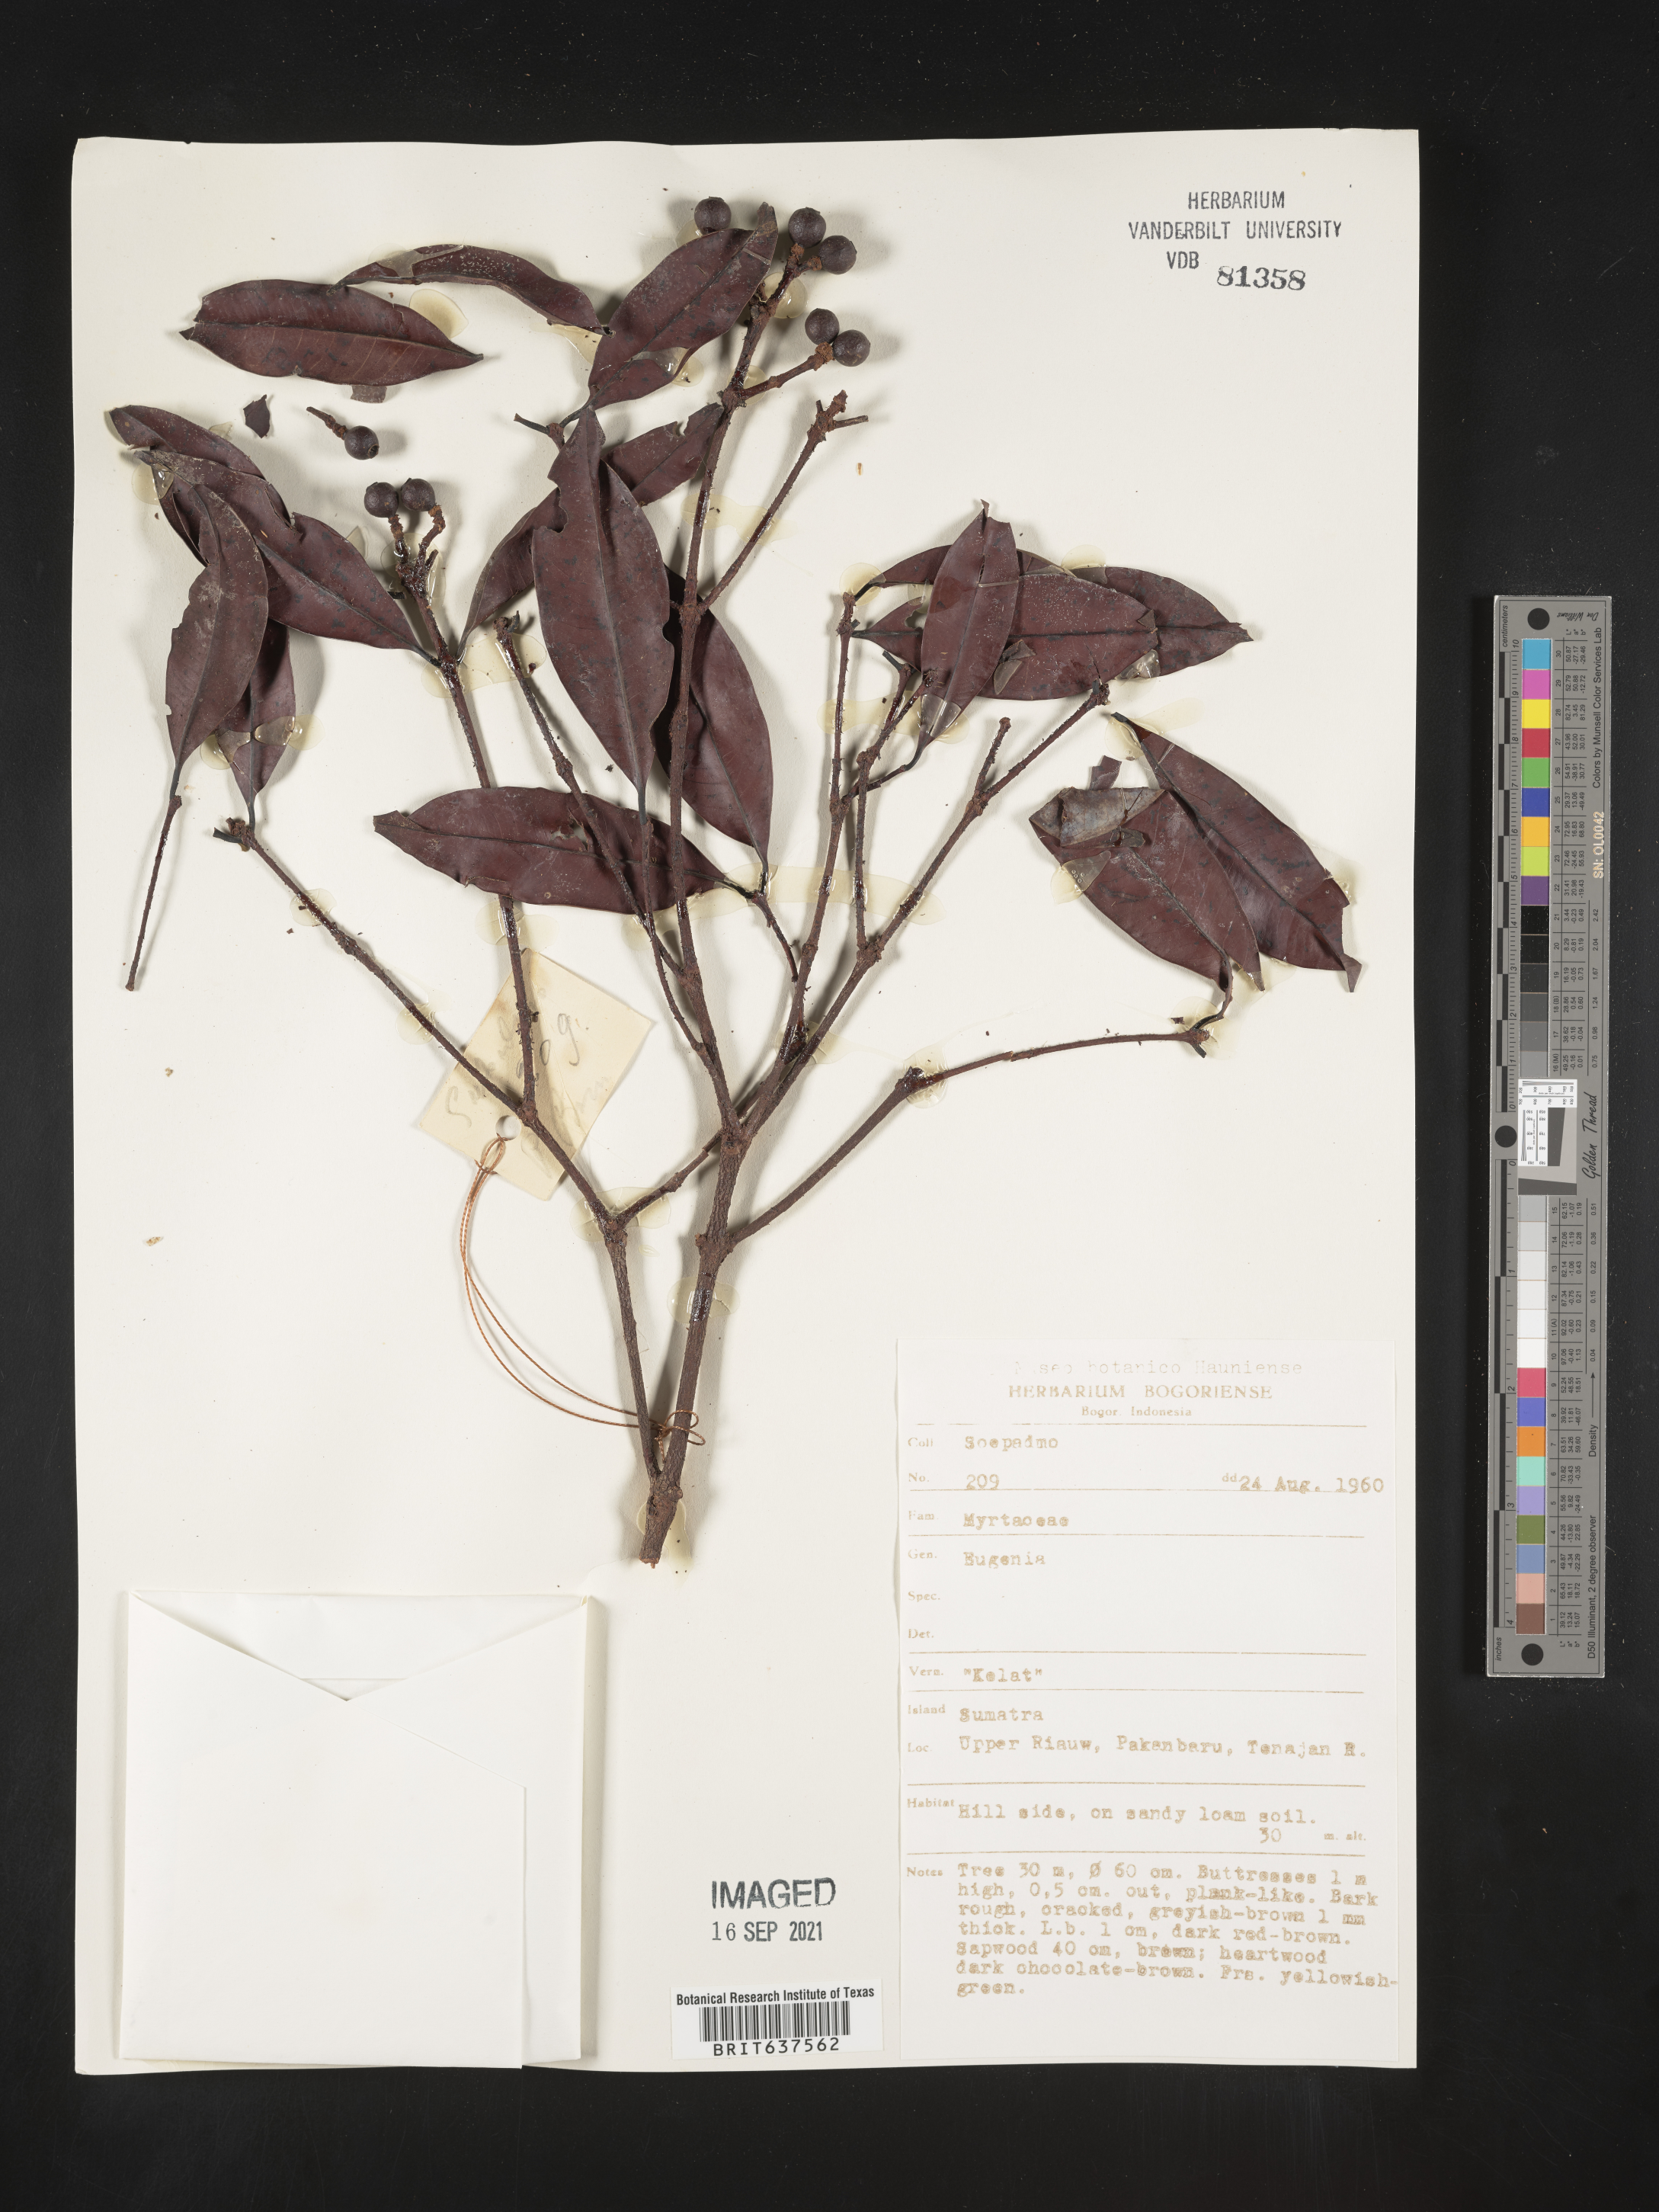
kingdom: Plantae
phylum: Tracheophyta
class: Magnoliopsida
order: Myrtales
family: Myrtaceae
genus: Eugenia
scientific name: Eugenia
